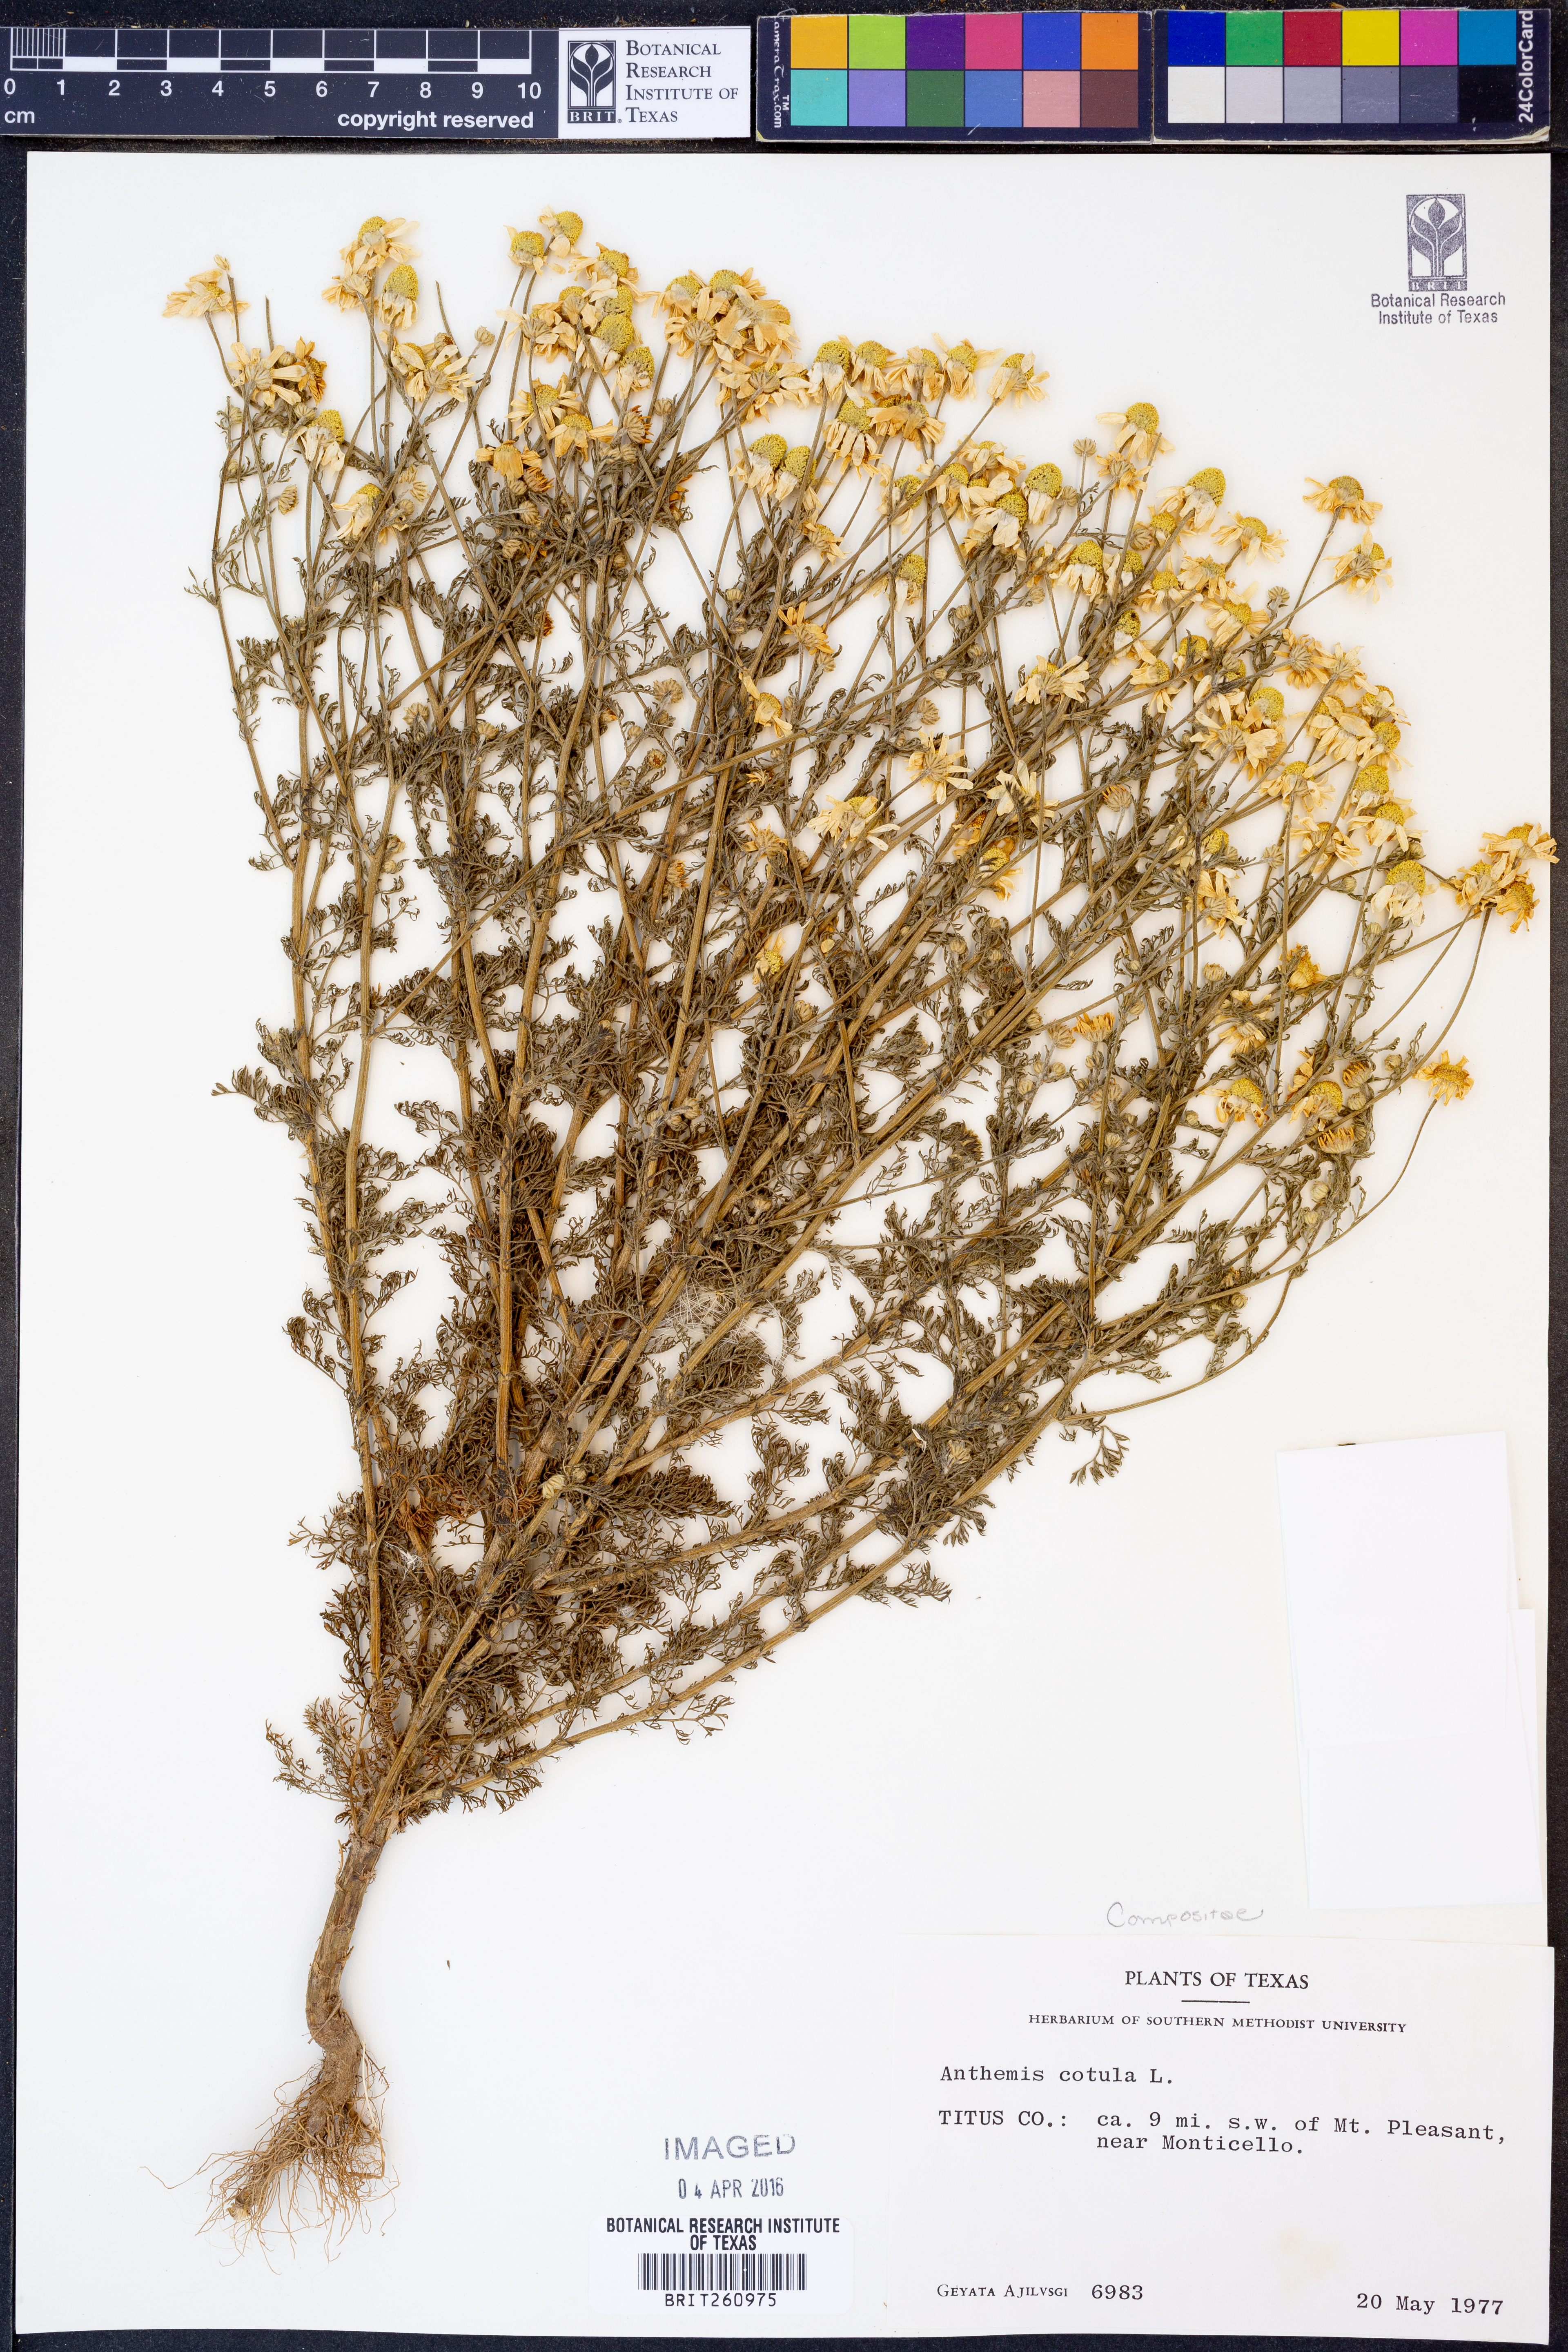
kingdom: Plantae
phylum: Tracheophyta
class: Magnoliopsida
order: Asterales
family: Asteraceae
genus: Anthemis
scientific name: Anthemis cotula
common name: Stinking chamomile
